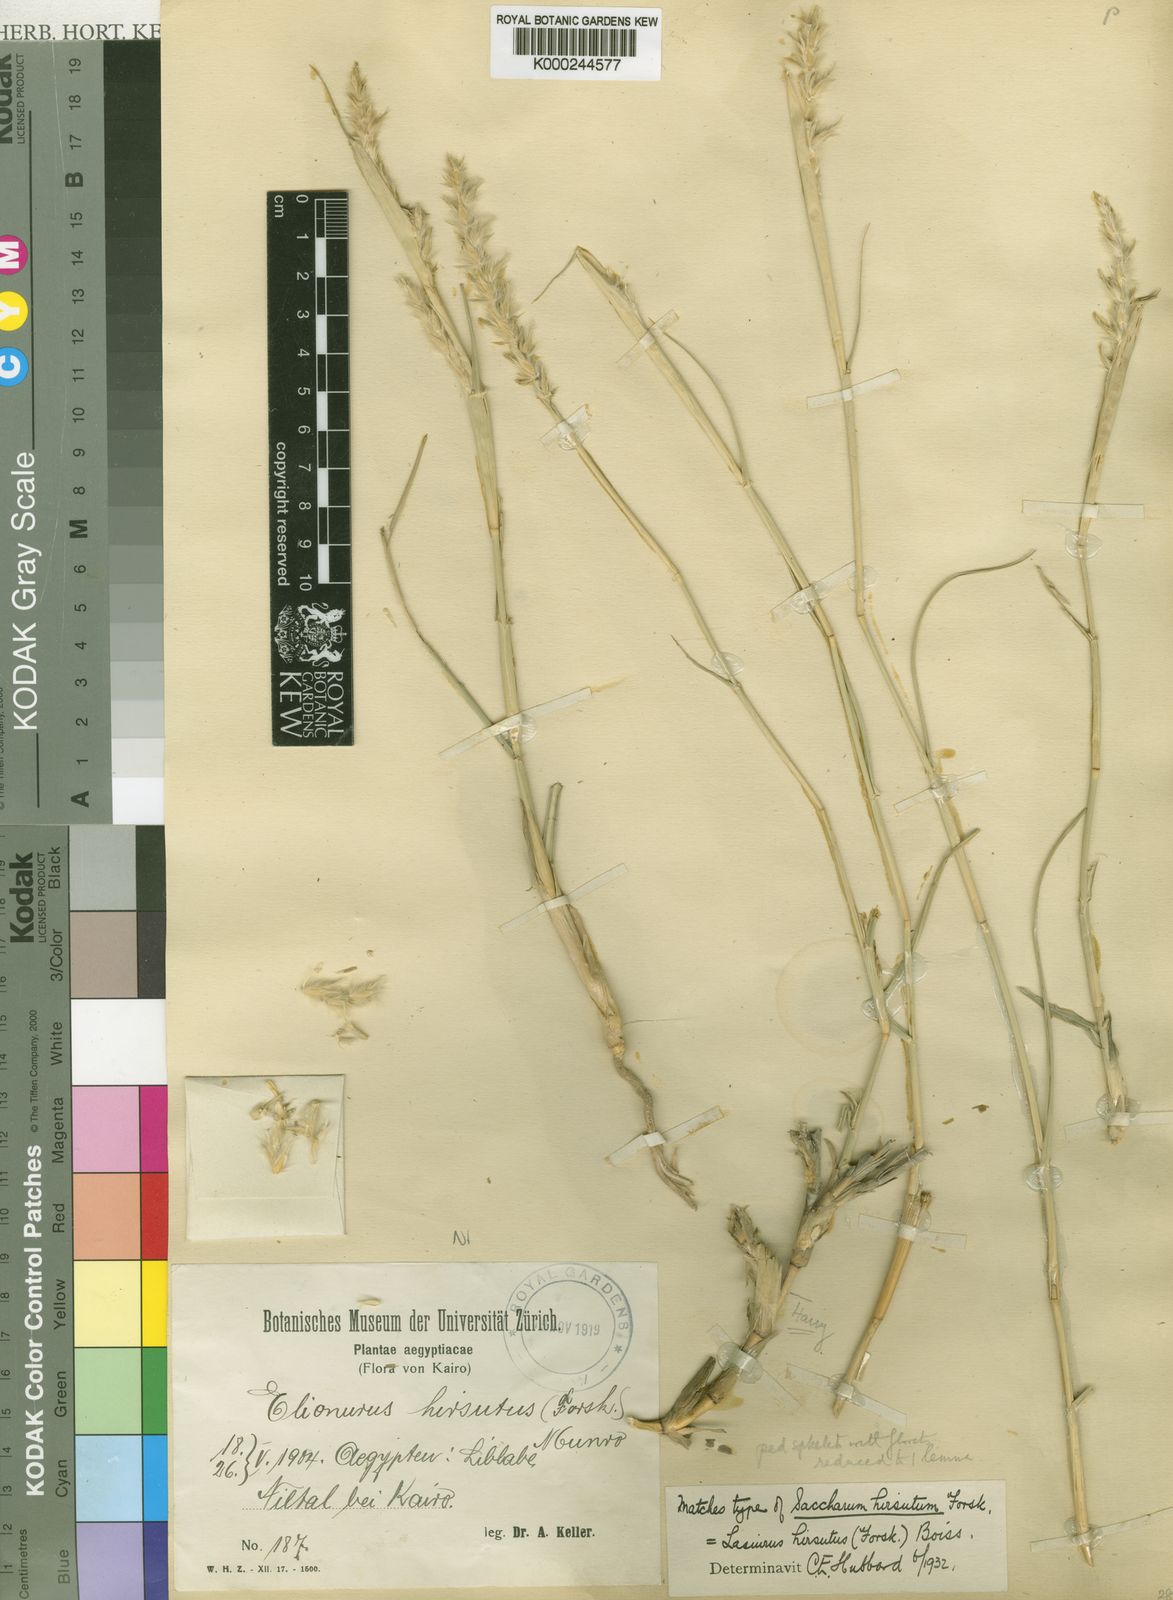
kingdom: Plantae
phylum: Tracheophyta
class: Liliopsida
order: Poales
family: Poaceae
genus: Lasiurus
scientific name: Lasiurus scindicus
